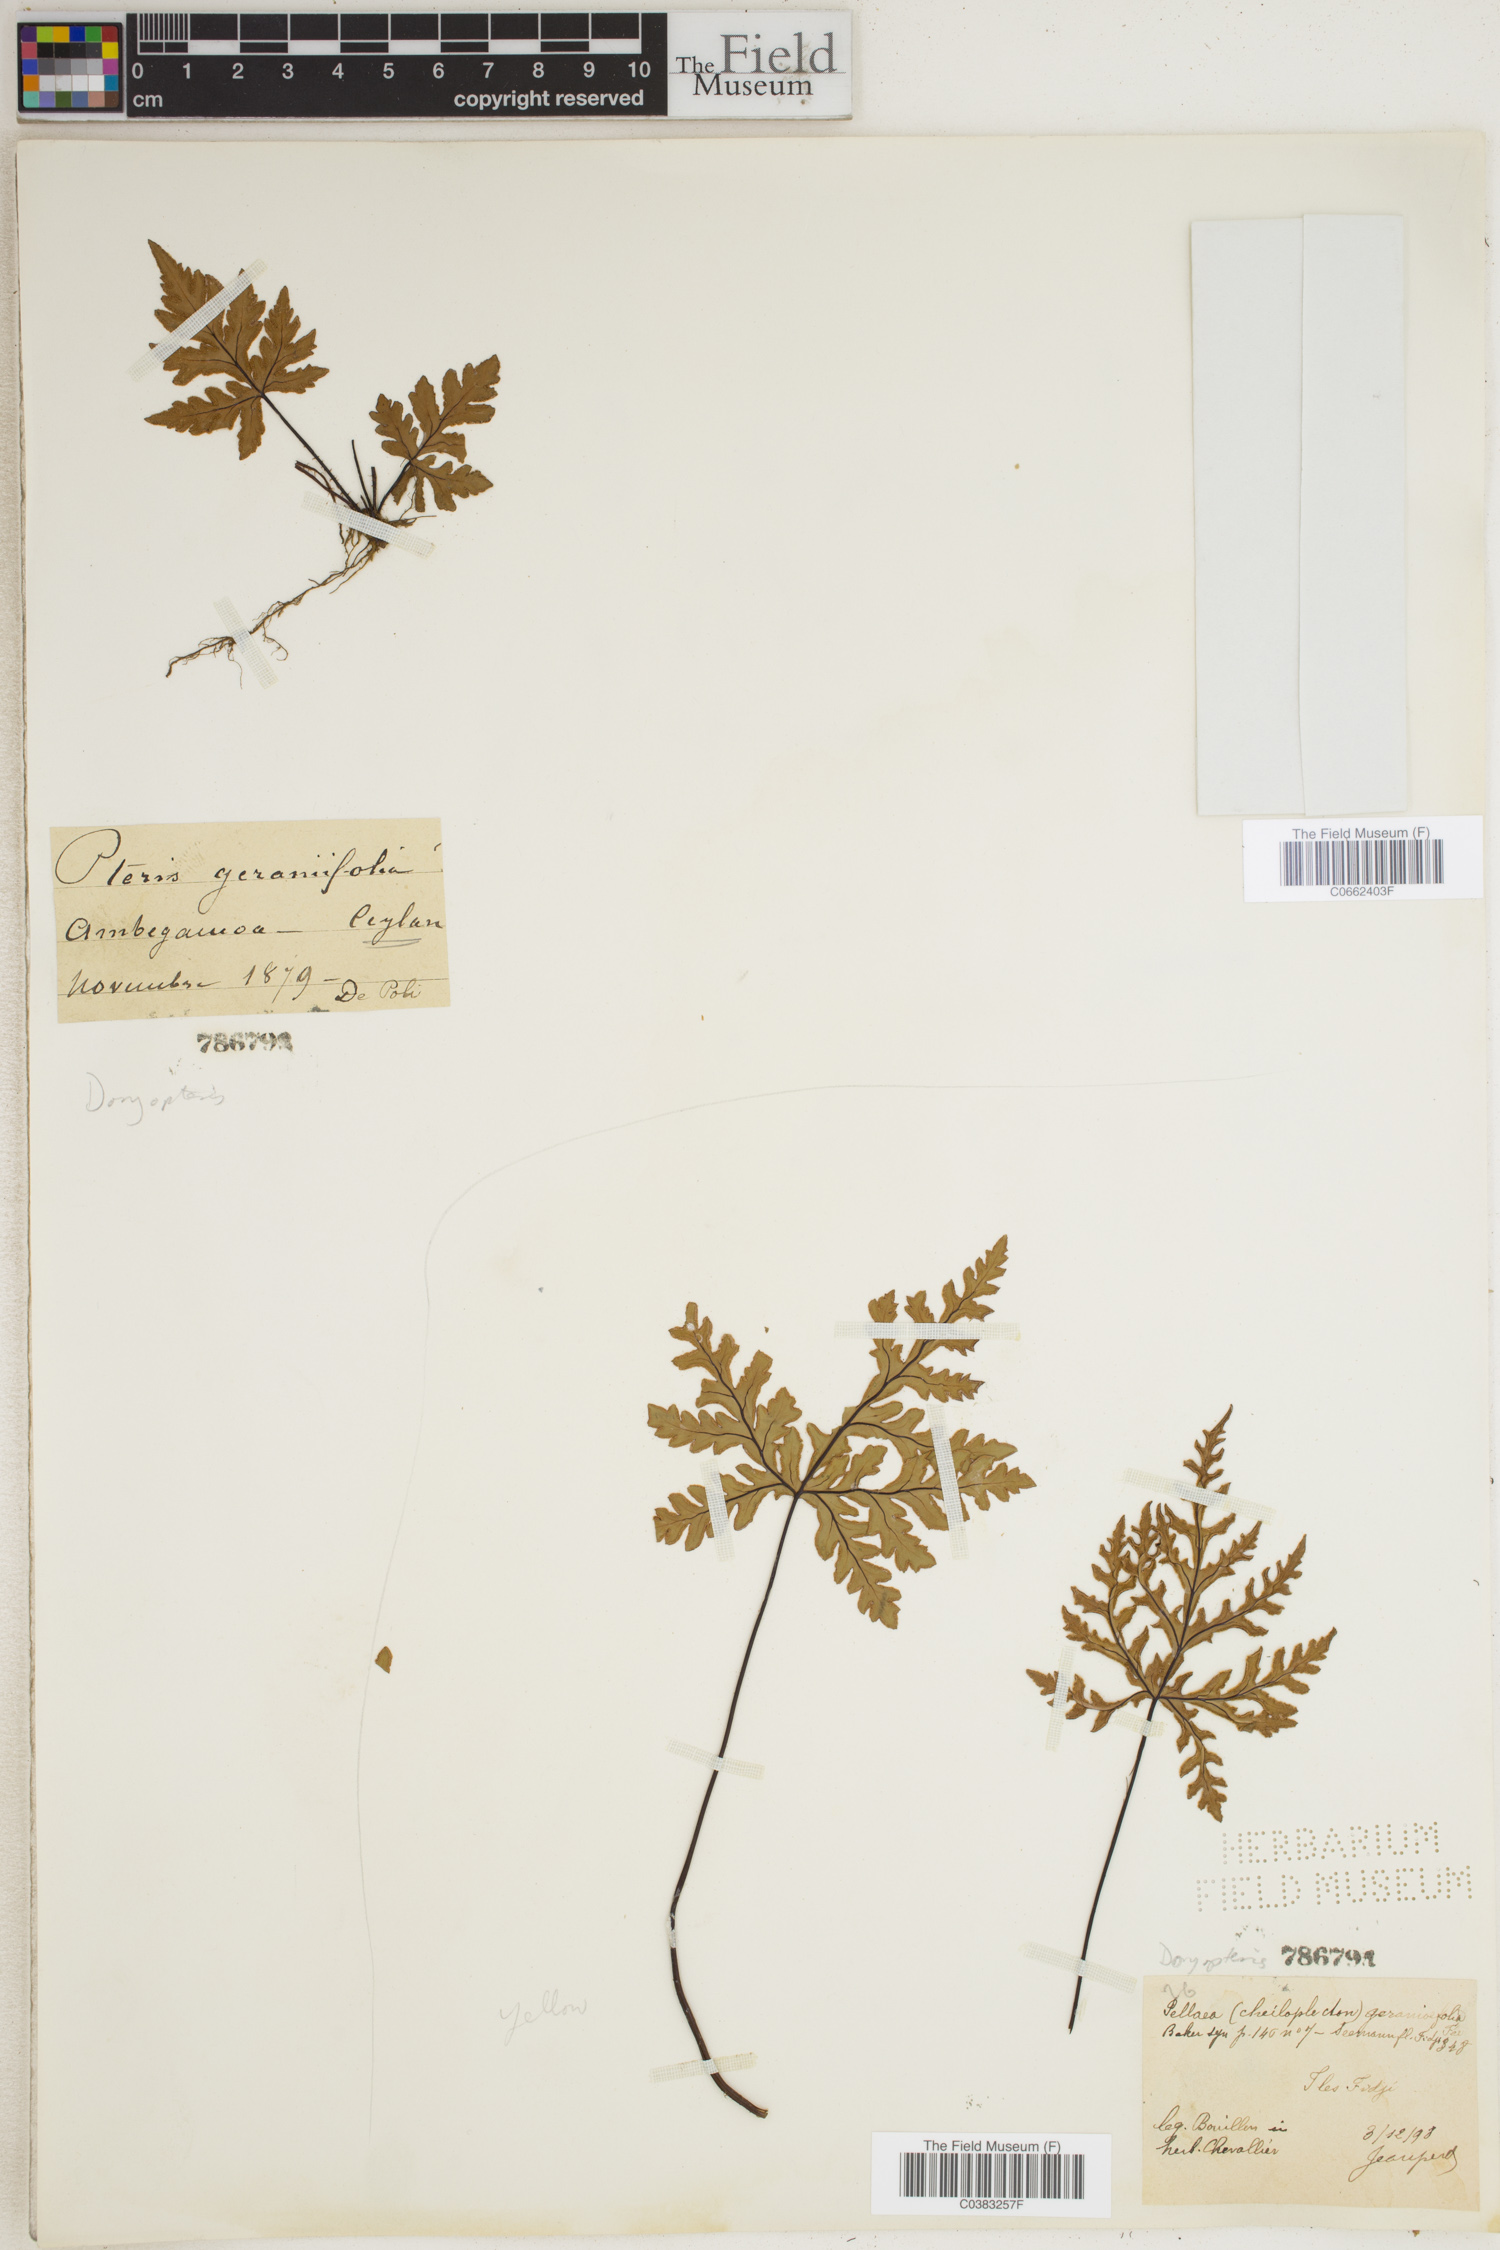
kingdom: Plantae
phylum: Tracheophyta
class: Polypodiopsida
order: Polypodiales
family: Pteridaceae
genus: Doryopteris
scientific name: Doryopteris kirkii
